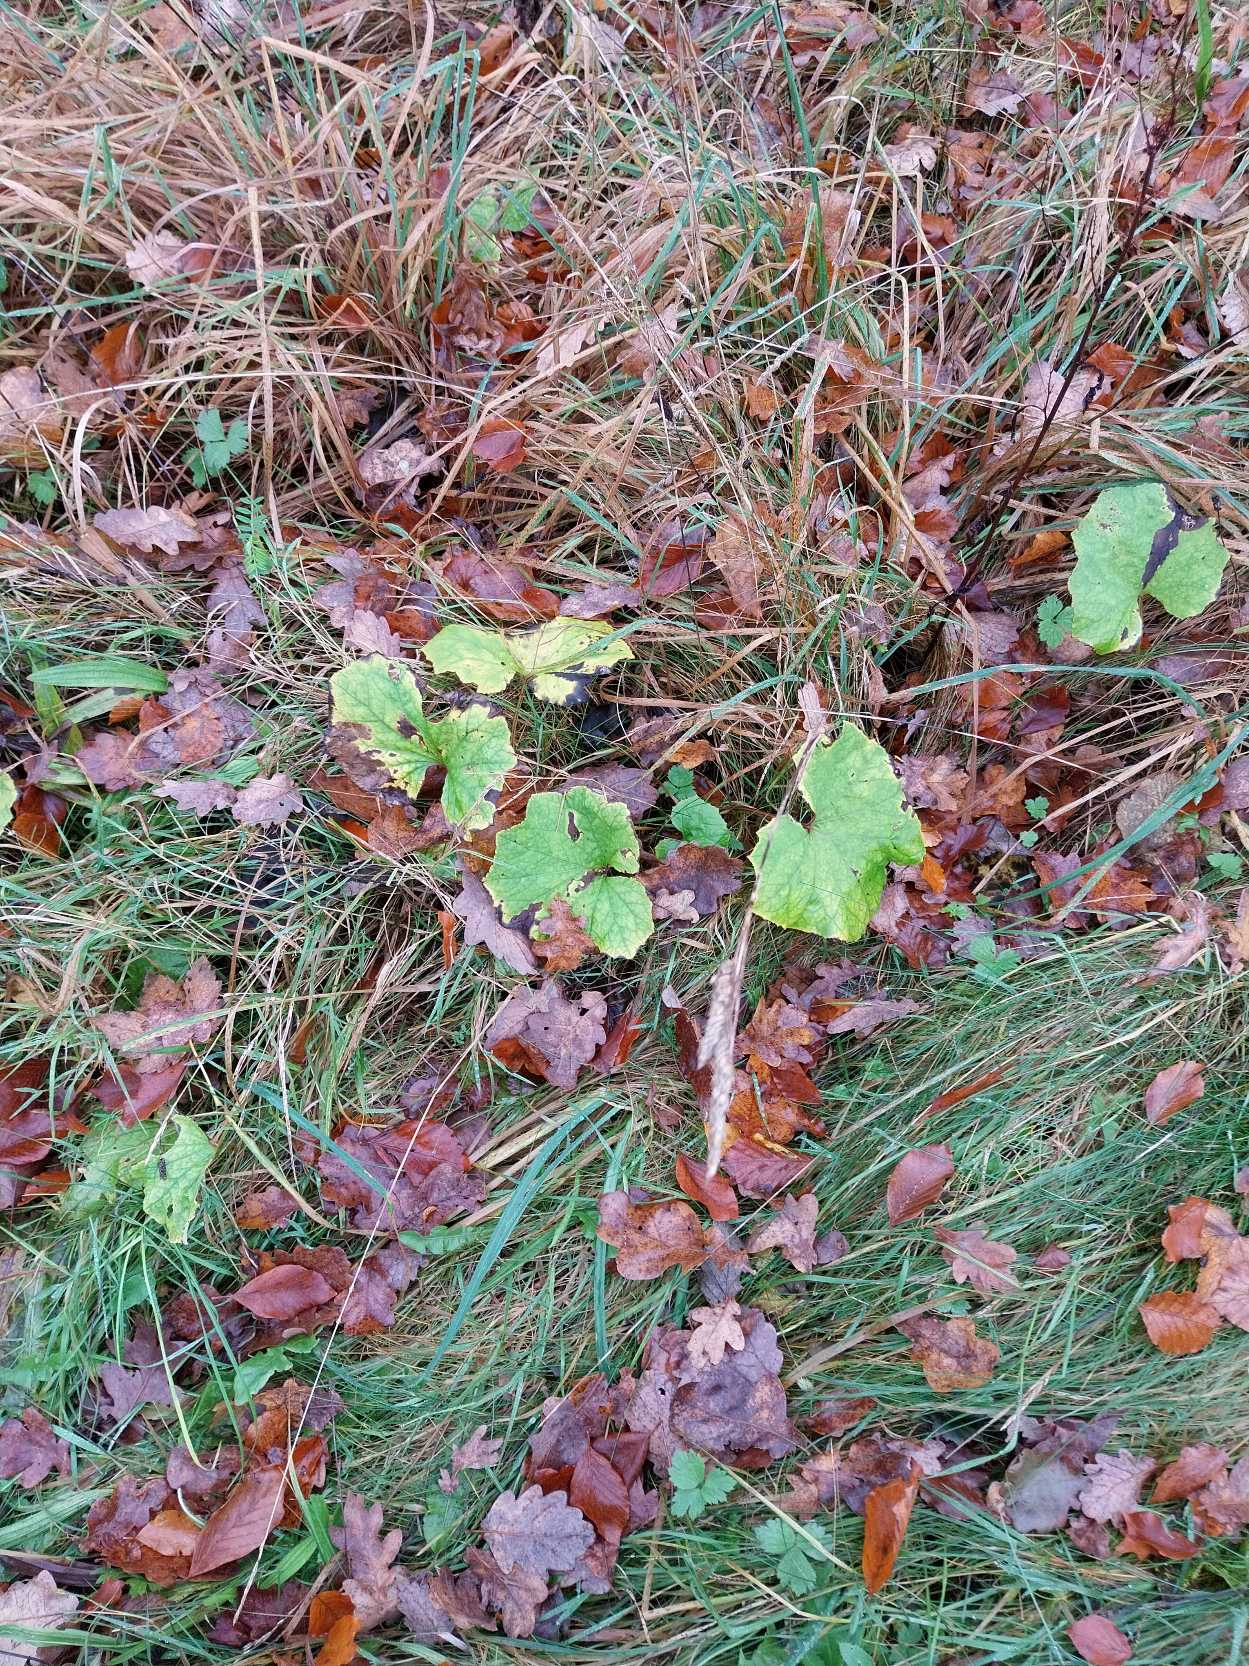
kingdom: Plantae
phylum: Tracheophyta
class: Magnoliopsida
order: Asterales
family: Asteraceae
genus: Tussilago
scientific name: Tussilago farfara
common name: Følfod
